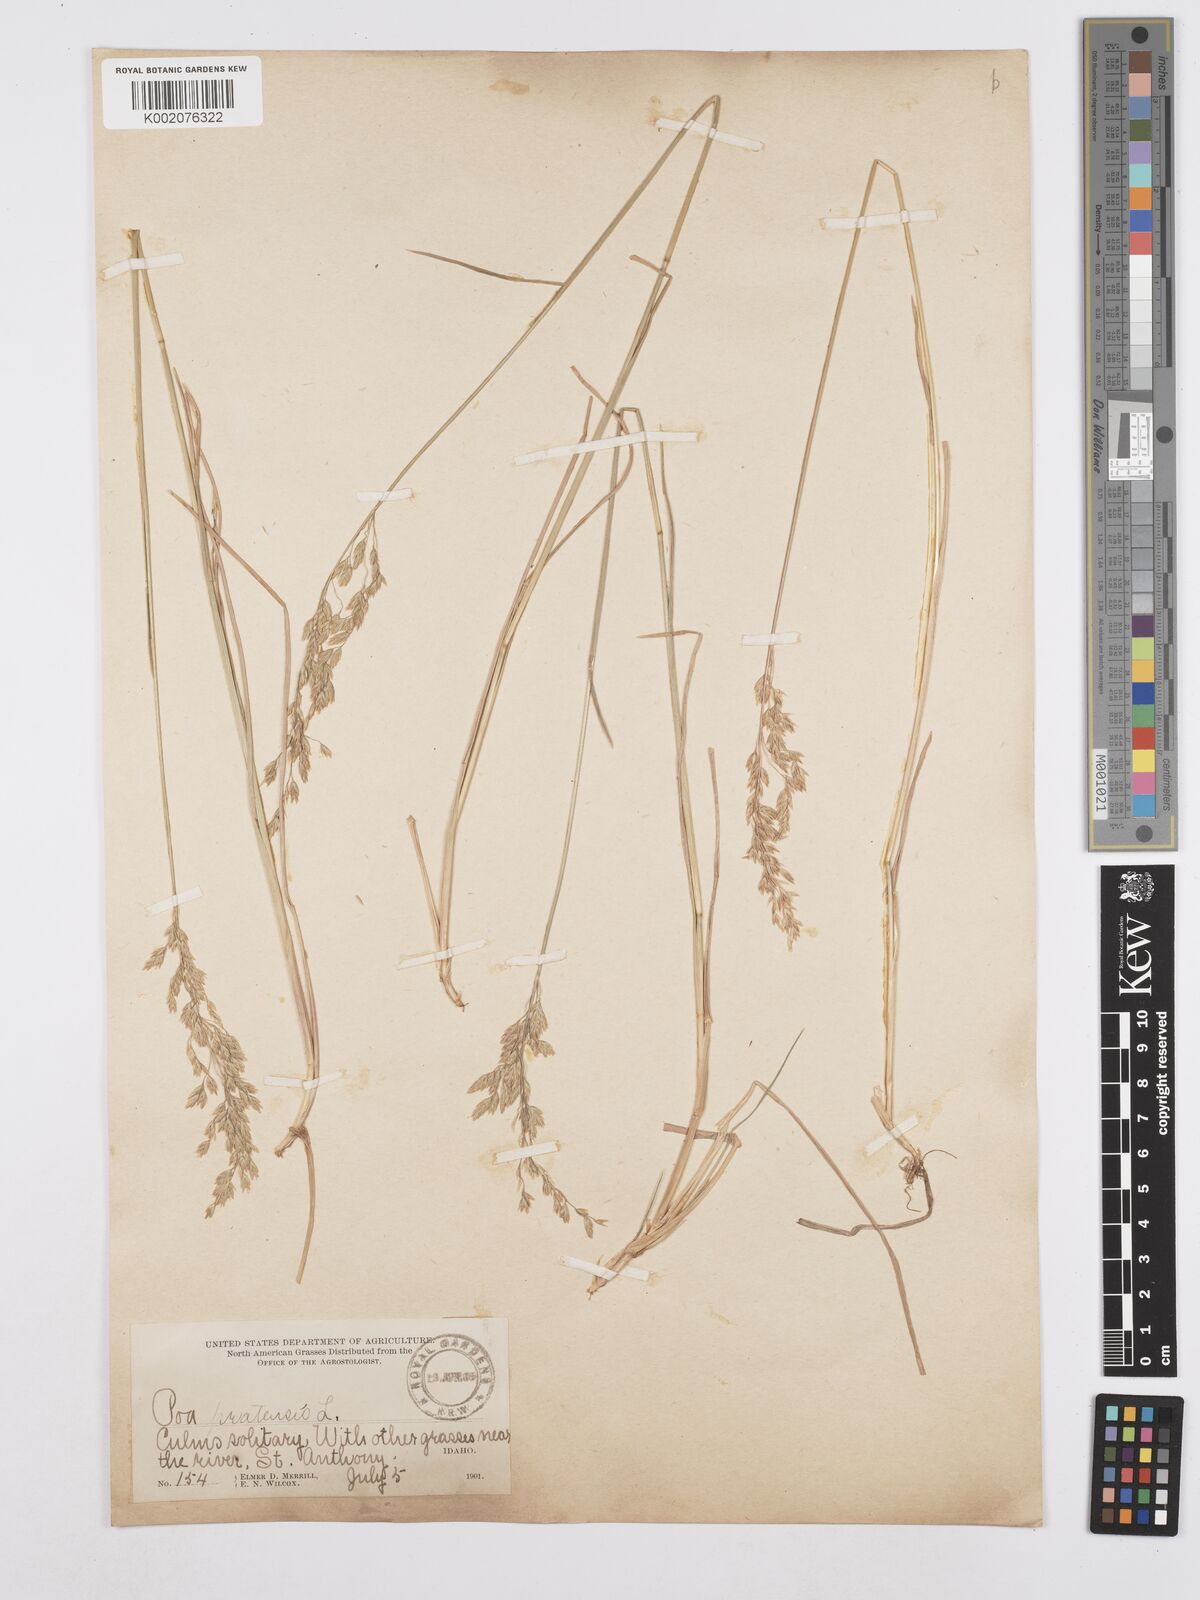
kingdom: Plantae
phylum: Tracheophyta
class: Liliopsida
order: Poales
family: Poaceae
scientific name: Poaceae
